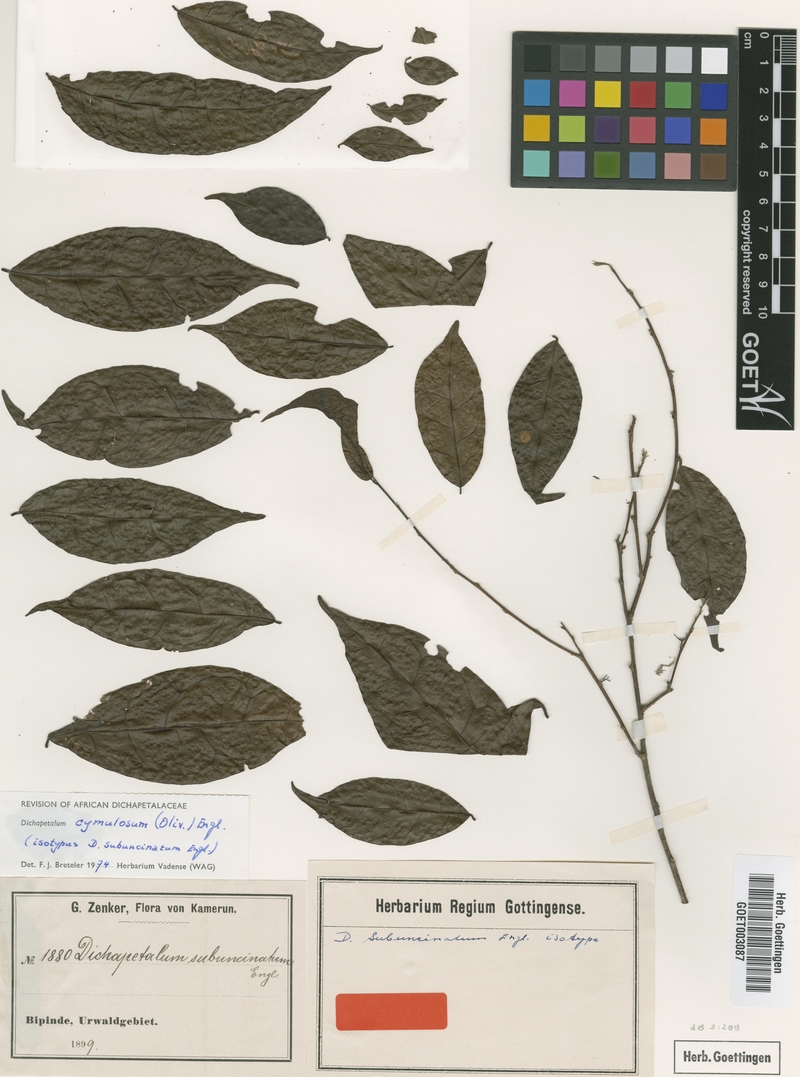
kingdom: Plantae
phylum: Tracheophyta
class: Magnoliopsida
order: Malpighiales
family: Dichapetalaceae
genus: Dichapetalum
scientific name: Dichapetalum cymulosum
